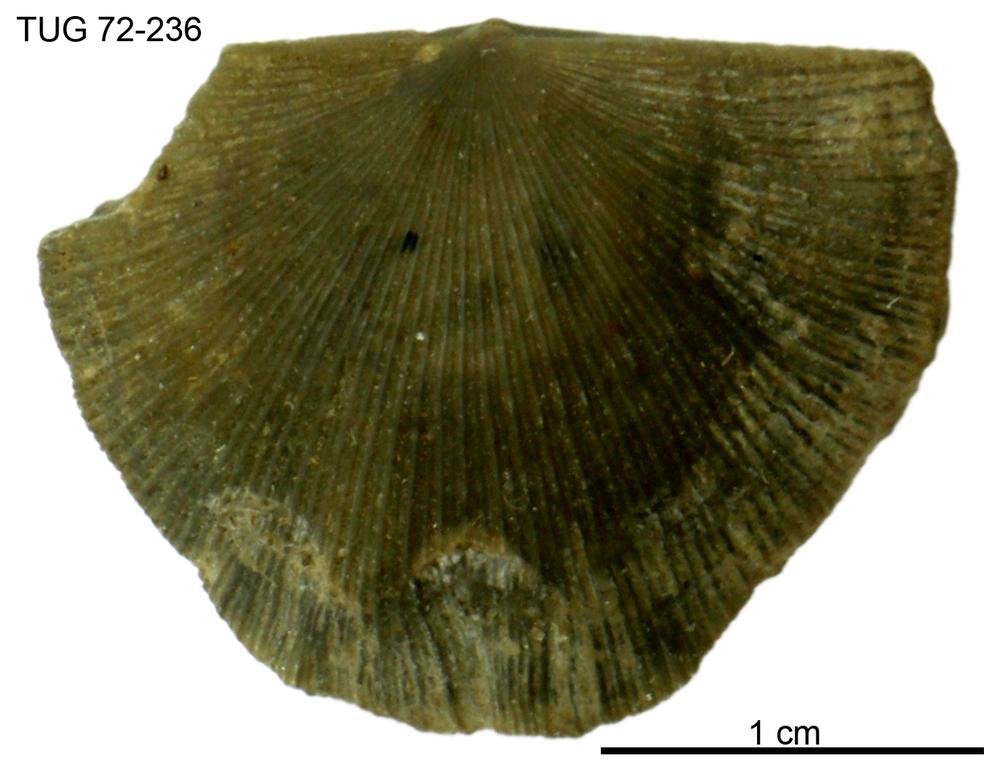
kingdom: Animalia
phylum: Brachiopoda
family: Strophomenidae
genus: Pseudostrophomena
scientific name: Pseudostrophomena
